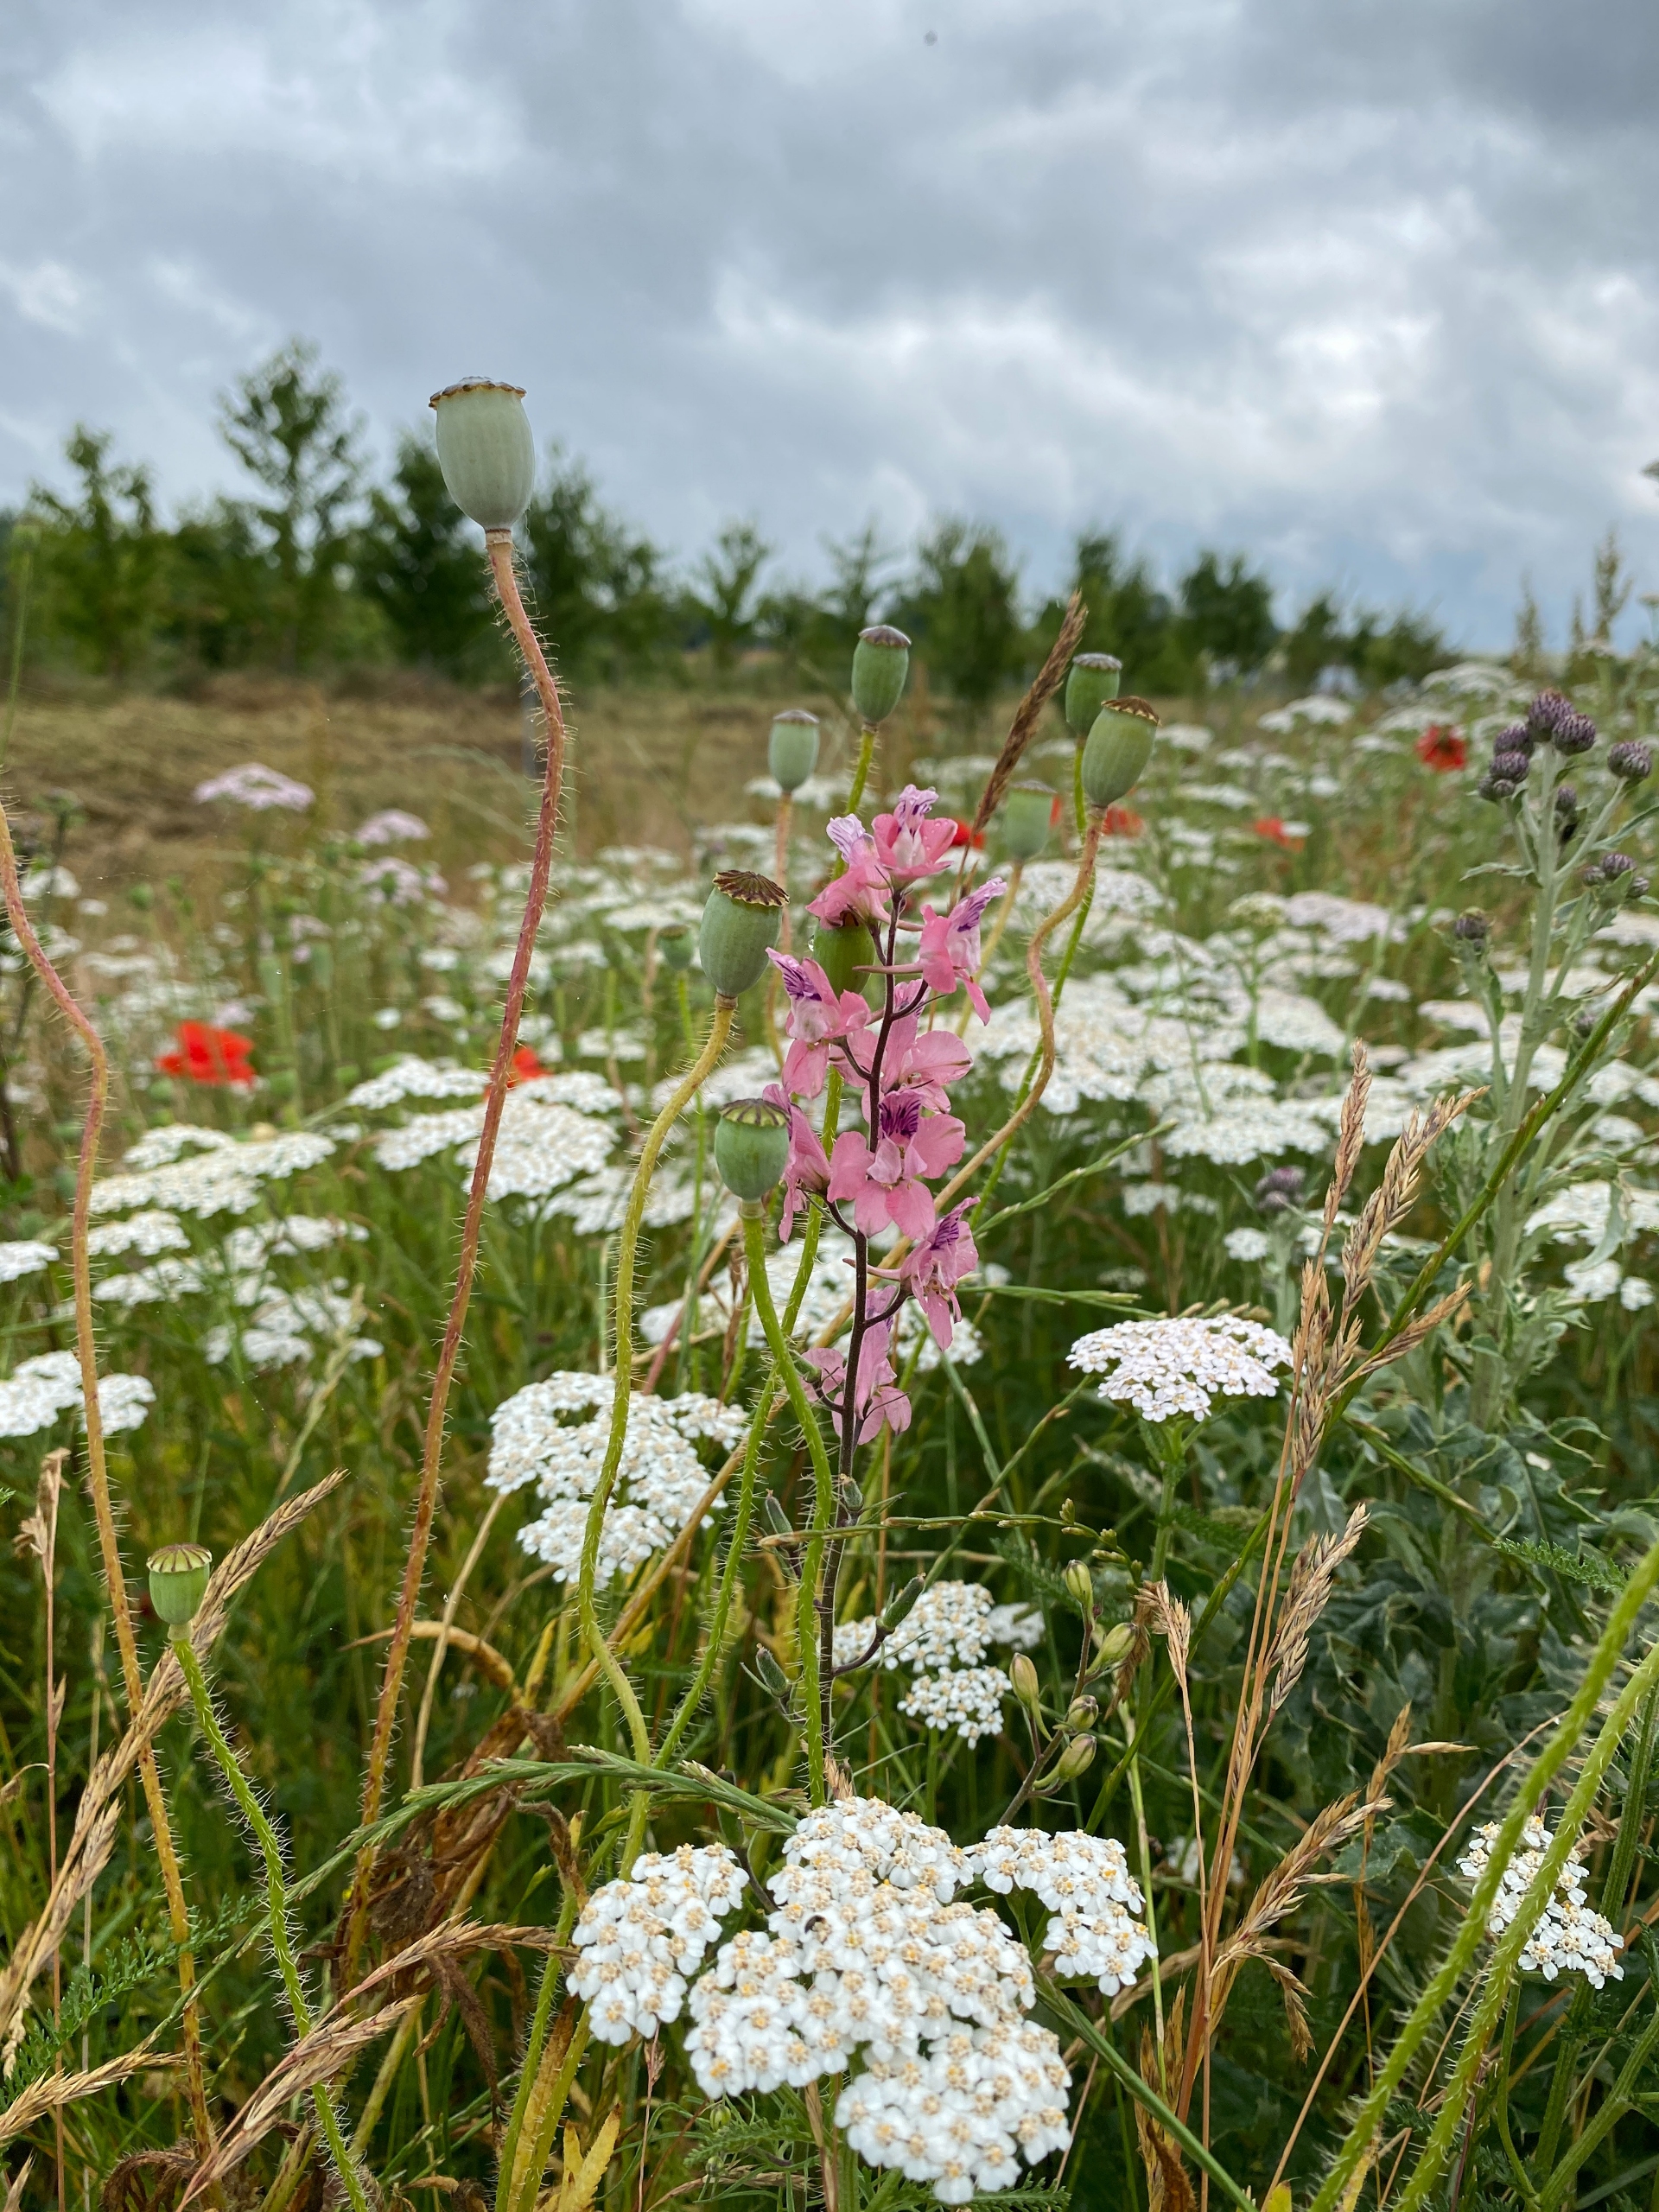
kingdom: Plantae
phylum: Tracheophyta
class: Magnoliopsida
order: Ranunculales
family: Ranunculaceae
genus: Delphinium
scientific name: Delphinium ajacis
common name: Have-ridderspore
